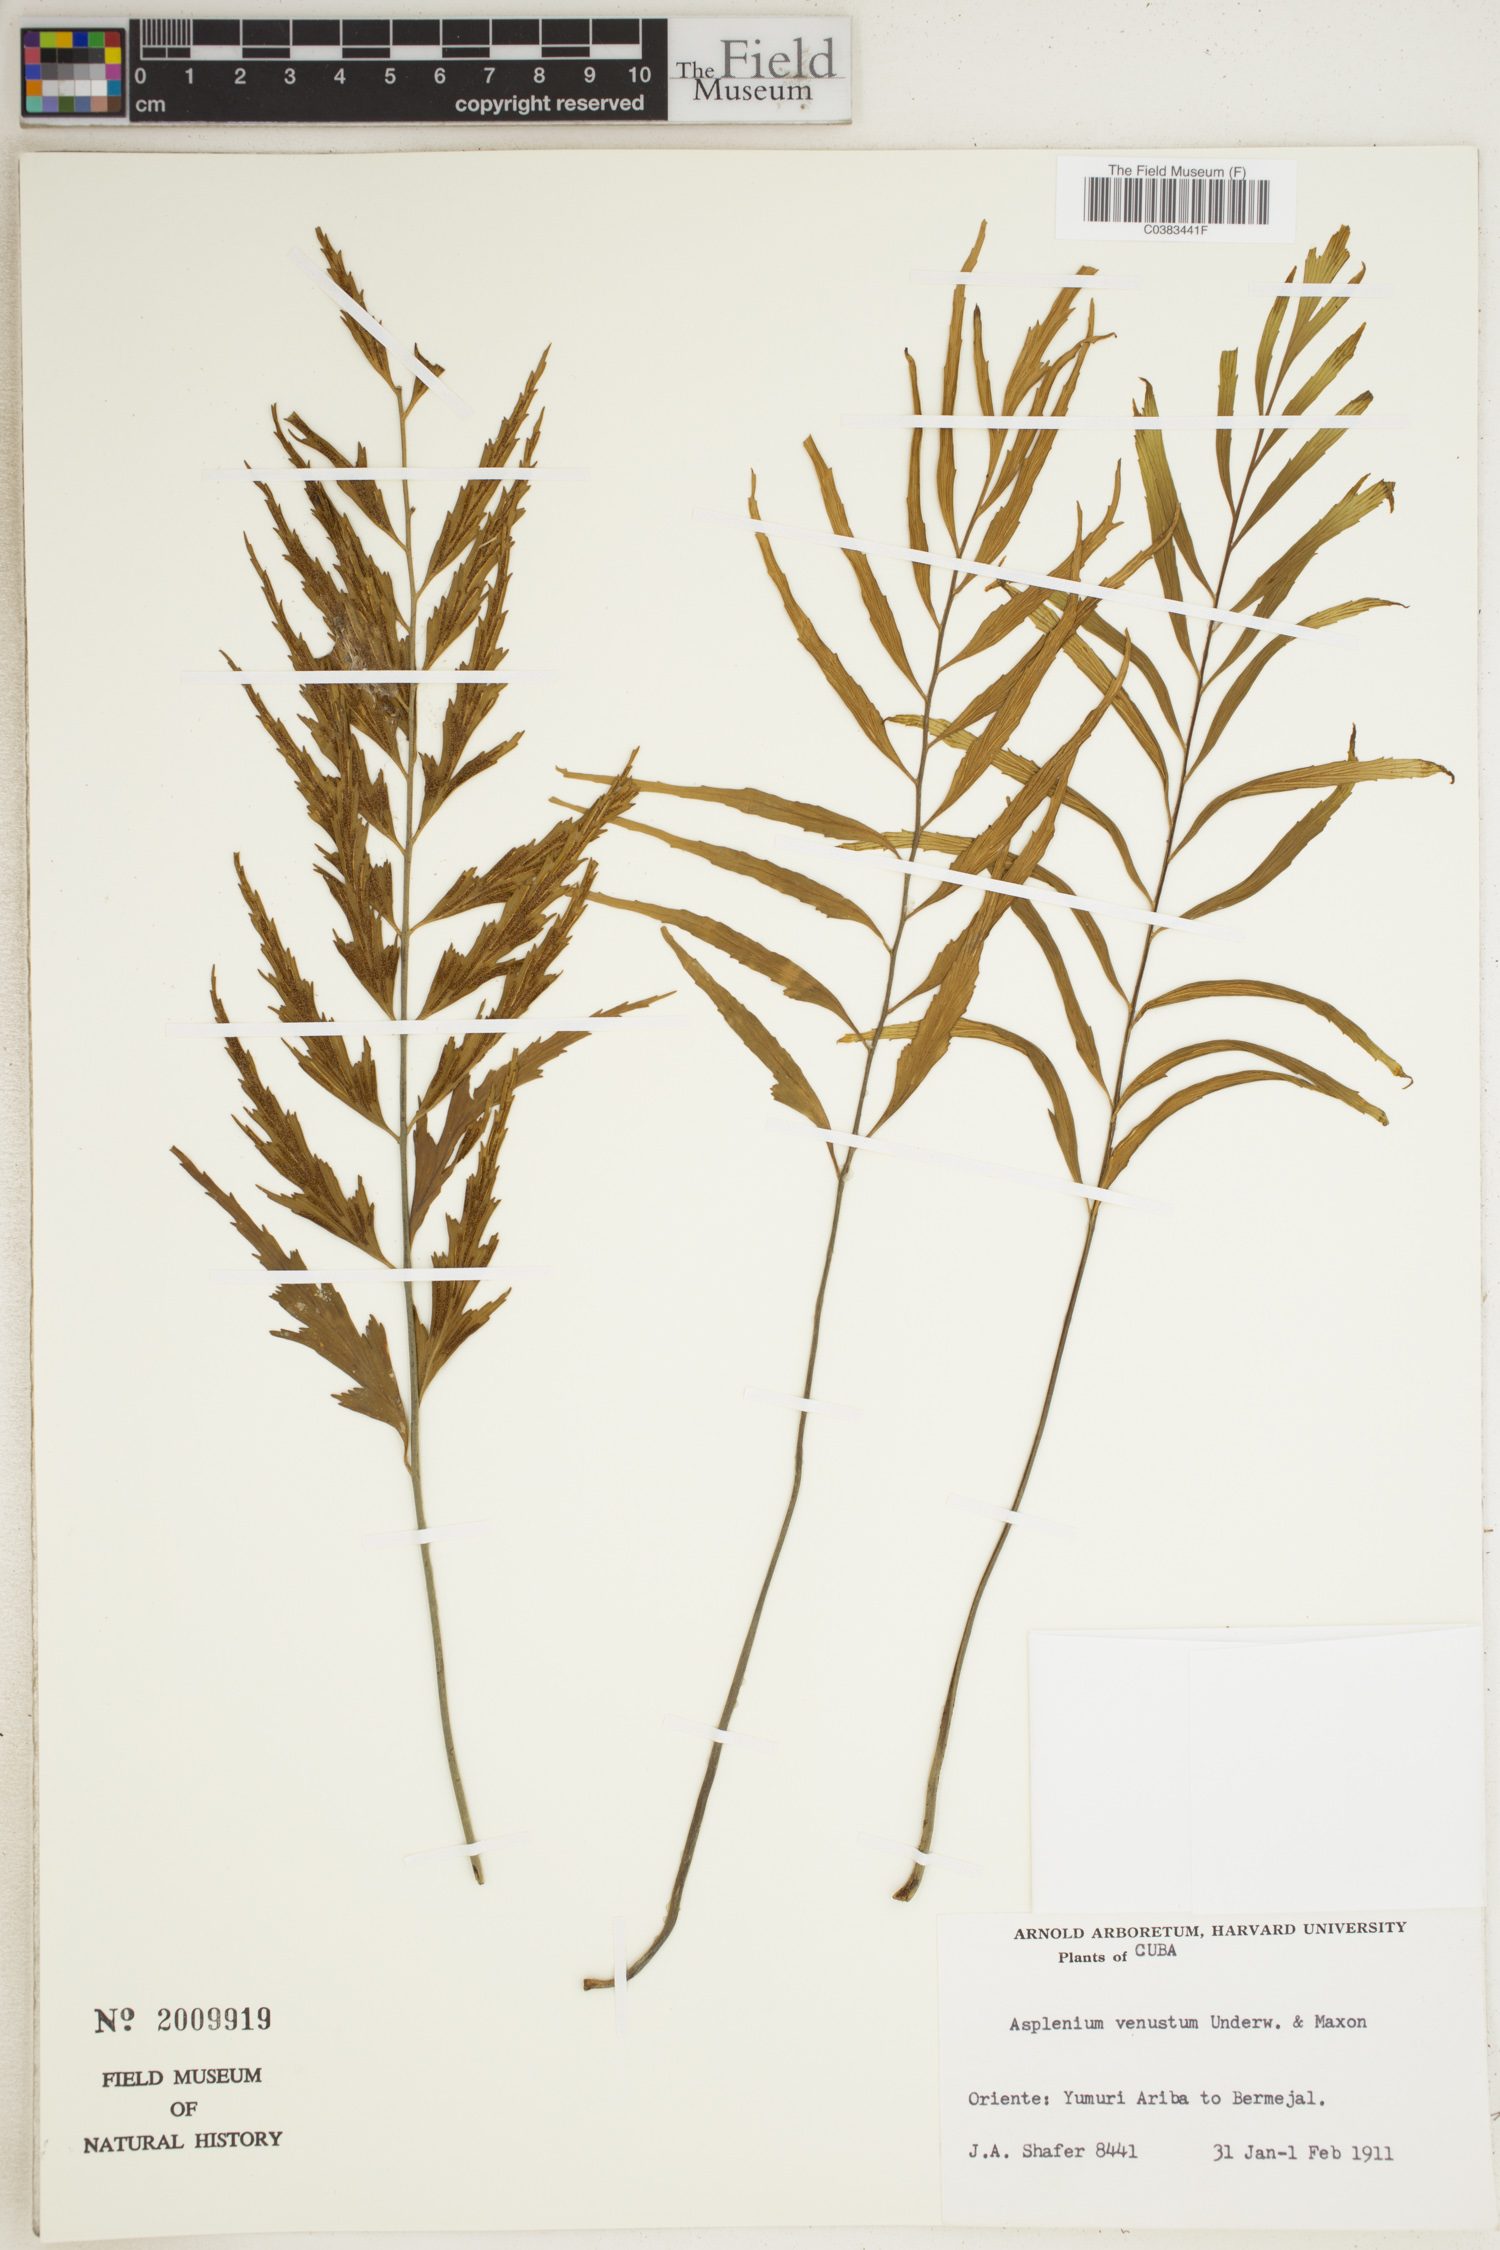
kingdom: Plantae
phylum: Tracheophyta
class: Polypodiopsida
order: Polypodiales
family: Aspleniaceae
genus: Asplenium
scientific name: Asplenium venustum
